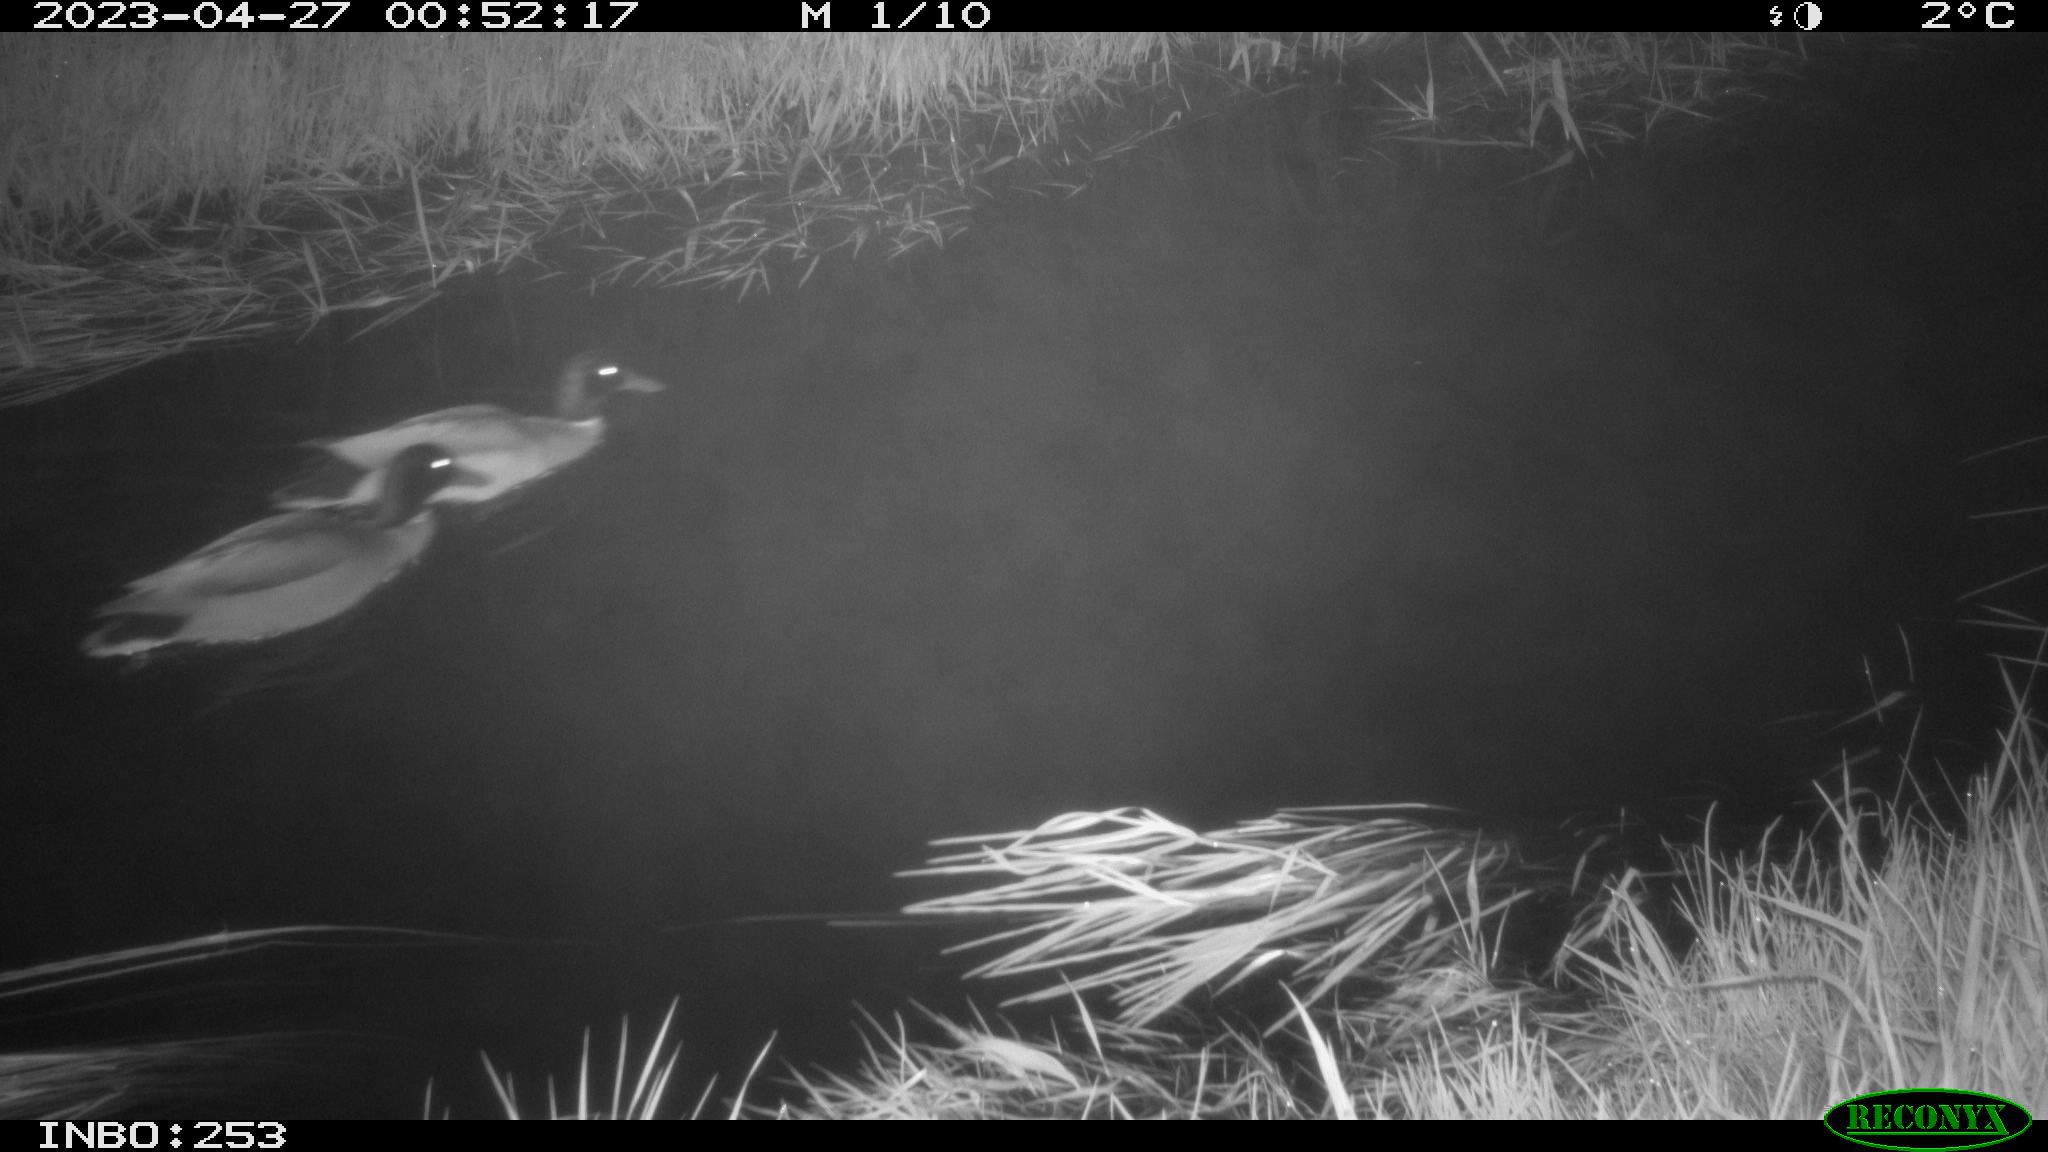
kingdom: Animalia
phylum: Chordata
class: Aves
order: Anseriformes
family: Anatidae
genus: Anas
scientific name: Anas
